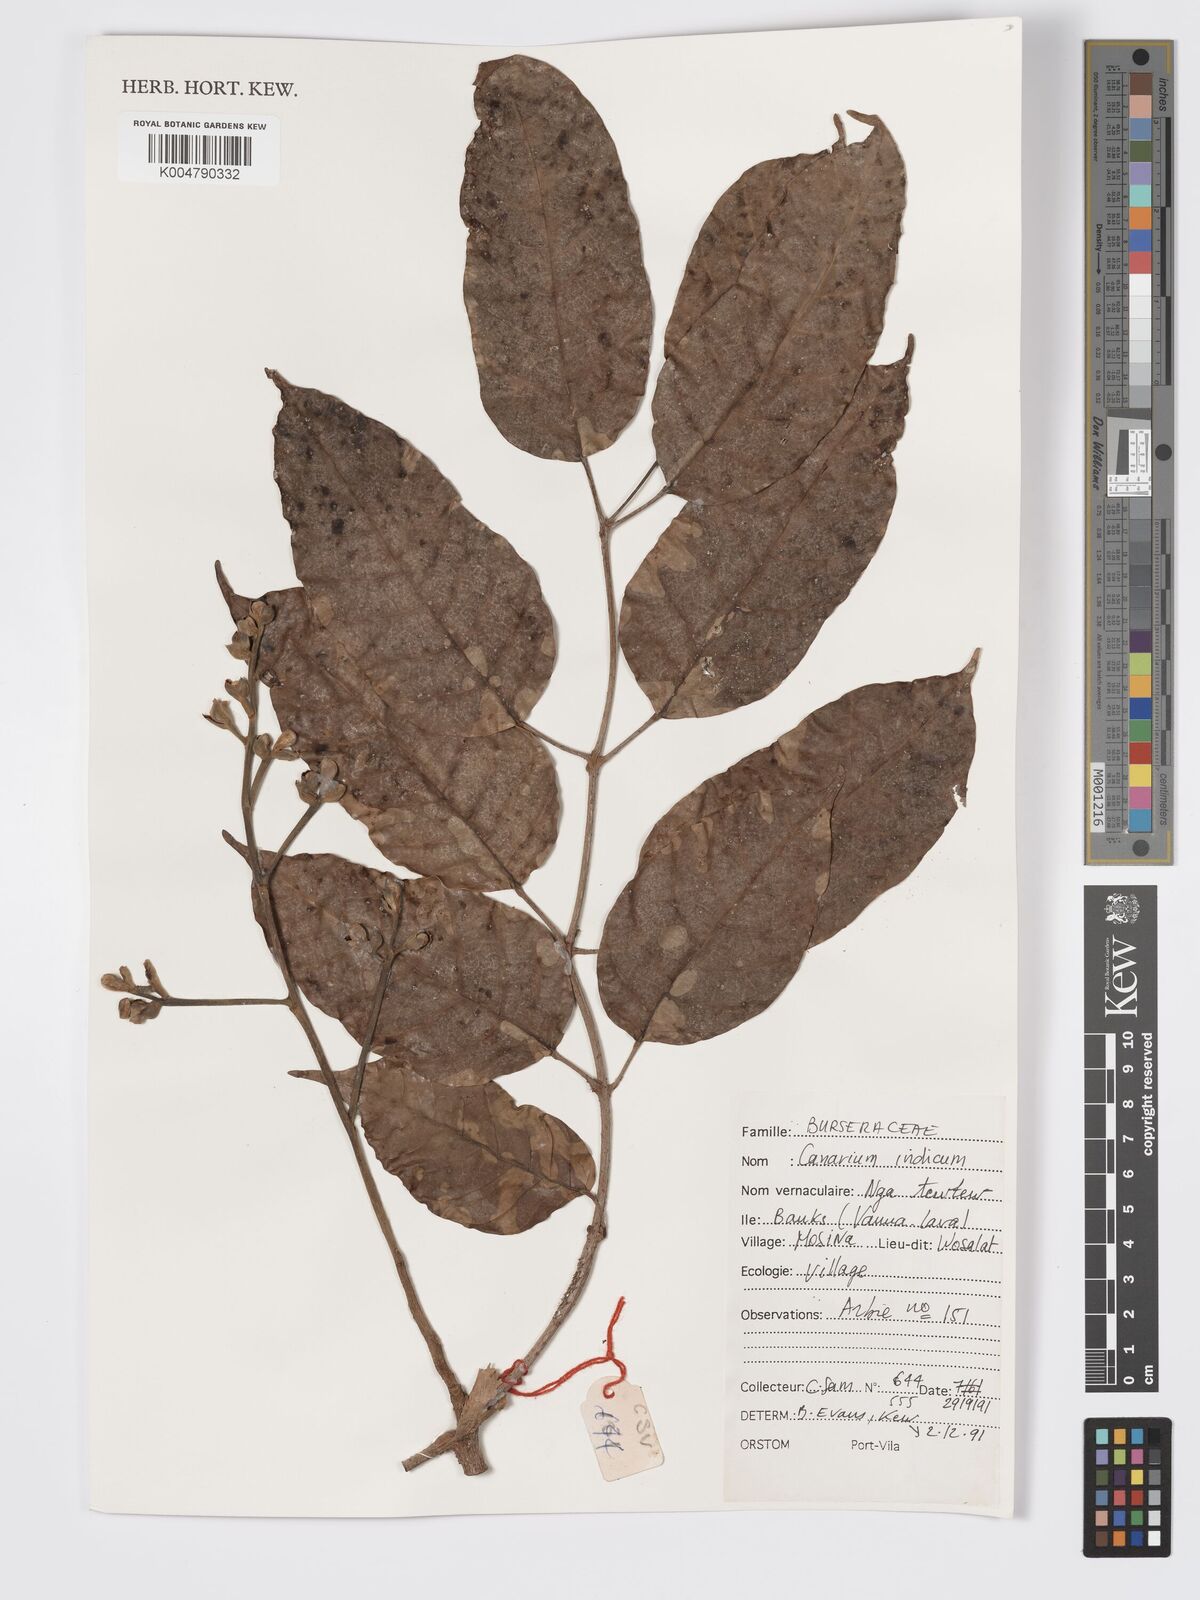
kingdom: Plantae
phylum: Tracheophyta
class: Magnoliopsida
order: Sapindales
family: Burseraceae
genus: Canarium
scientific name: Canarium indicum
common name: Canarium-nut
